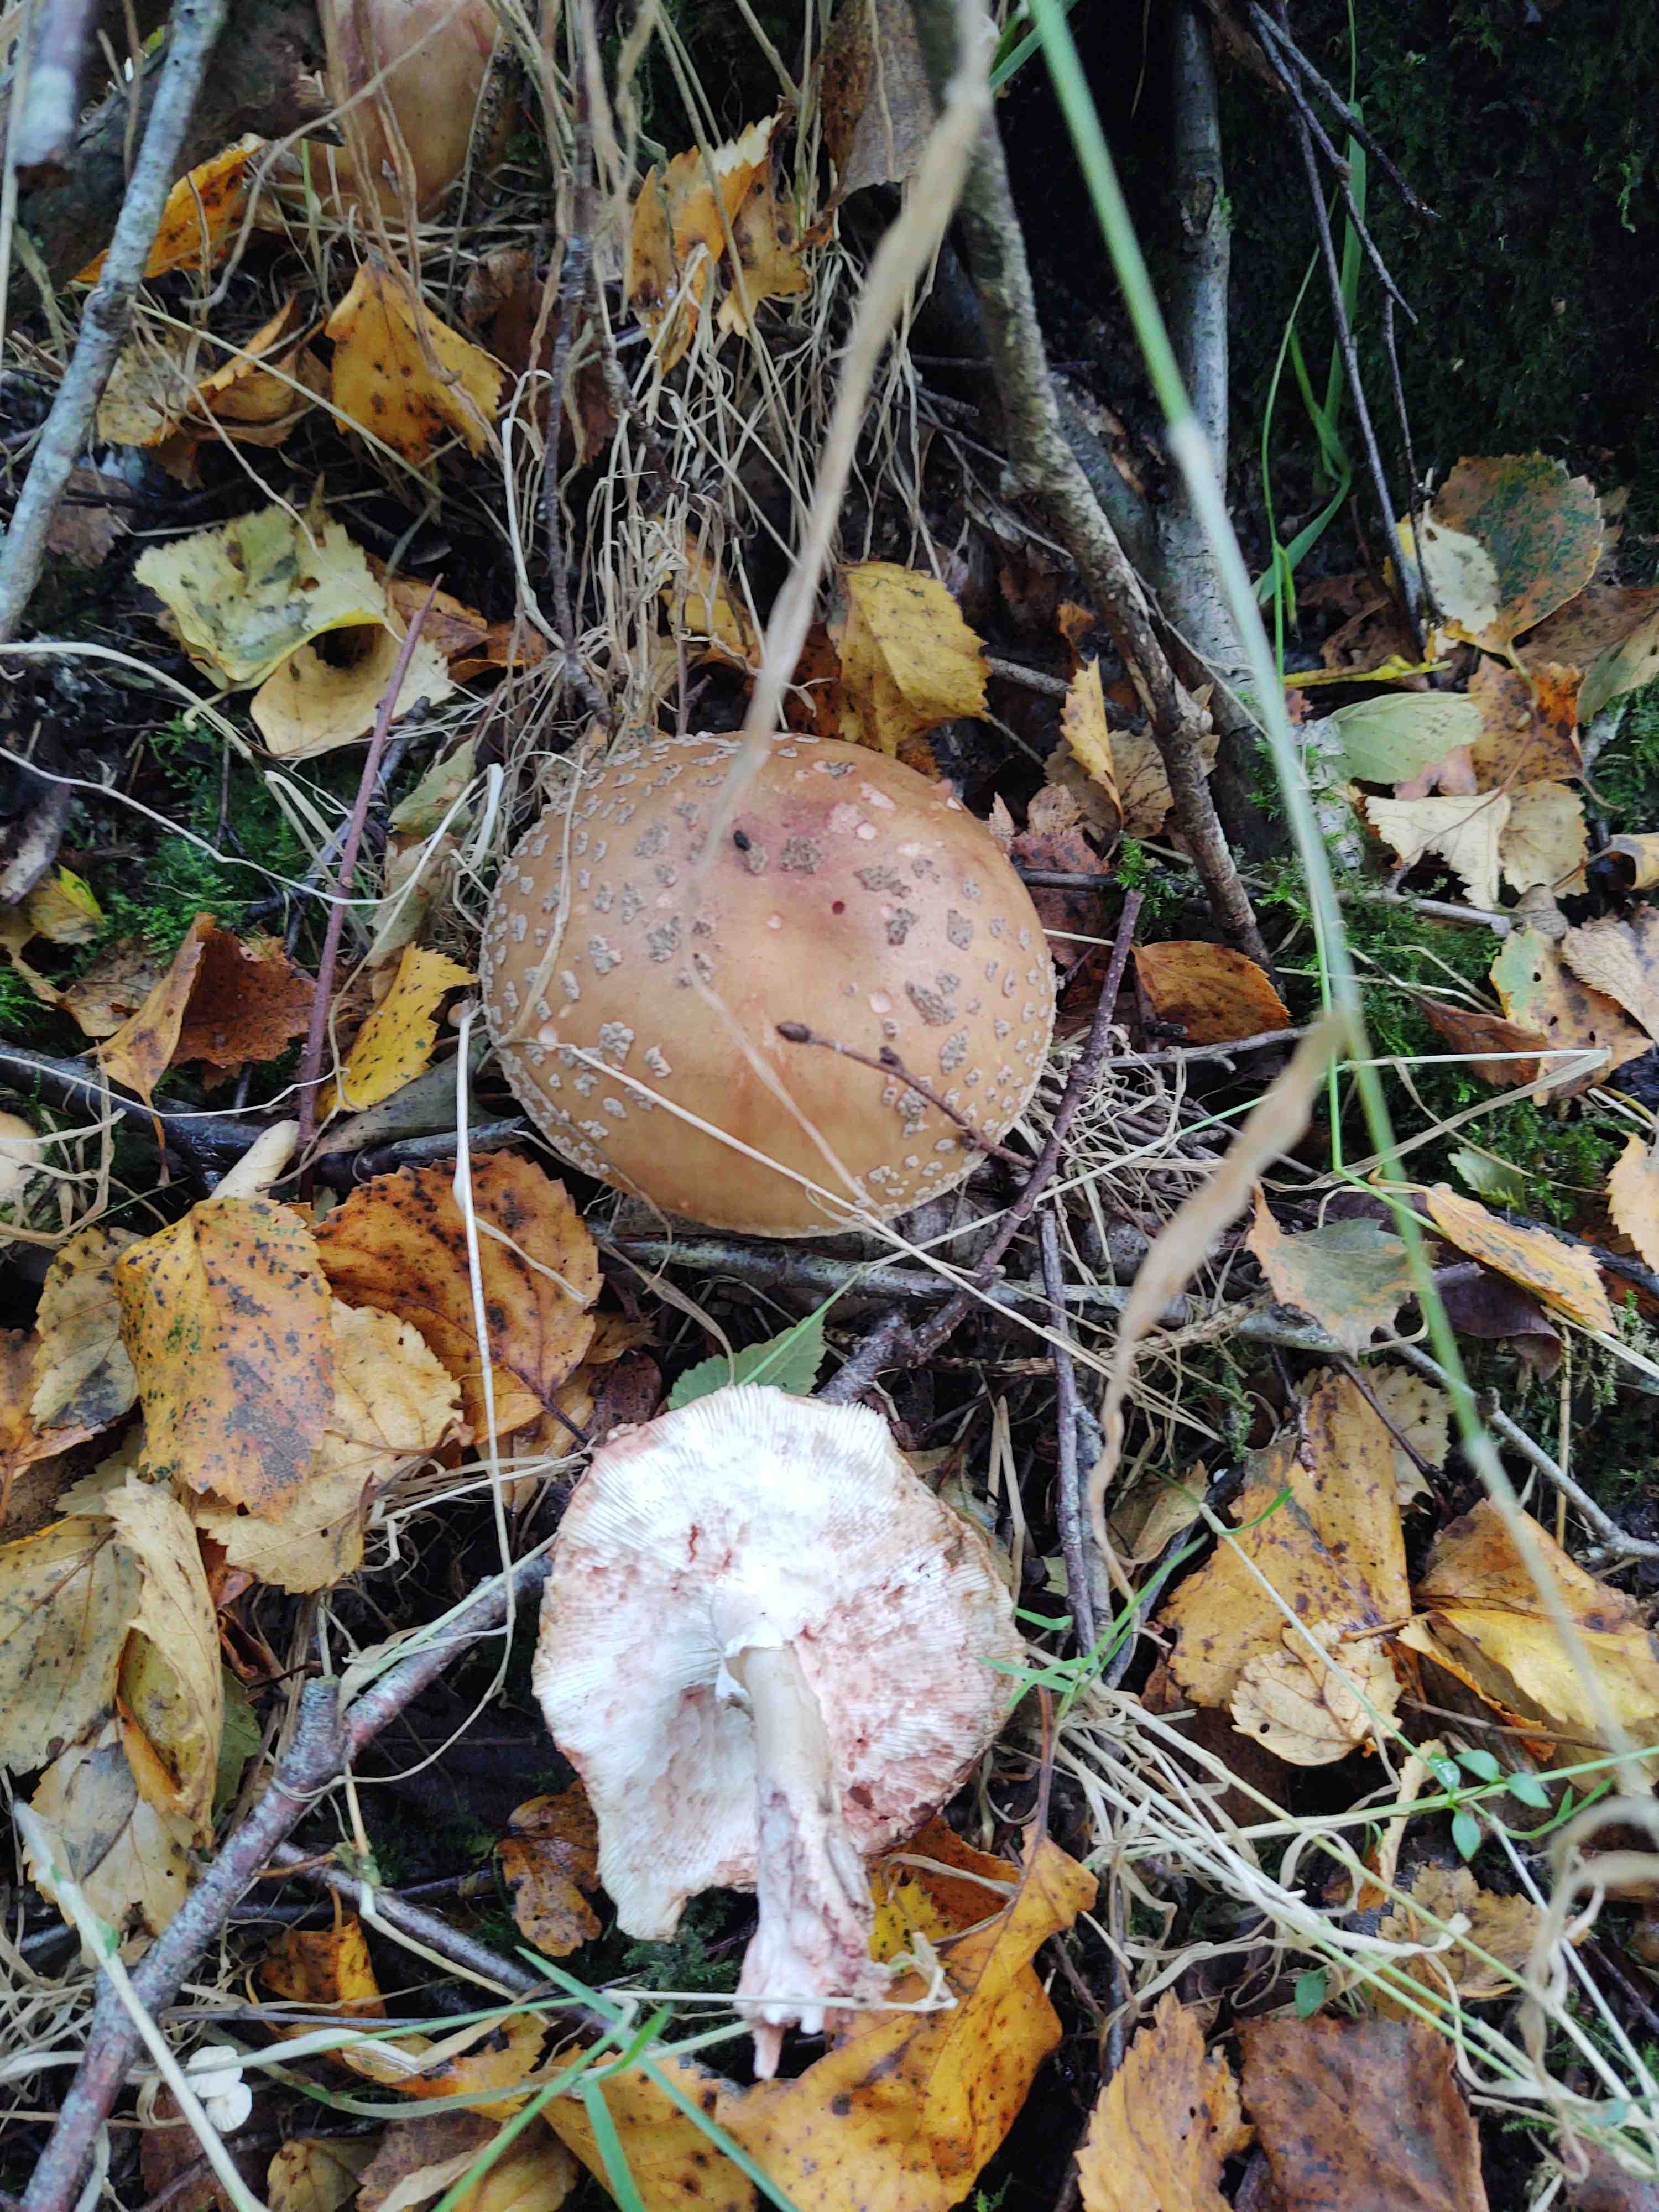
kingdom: Fungi
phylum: Basidiomycota
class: Agaricomycetes
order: Agaricales
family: Amanitaceae
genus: Amanita
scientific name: Amanita rubescens
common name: rødmende fluesvamp
